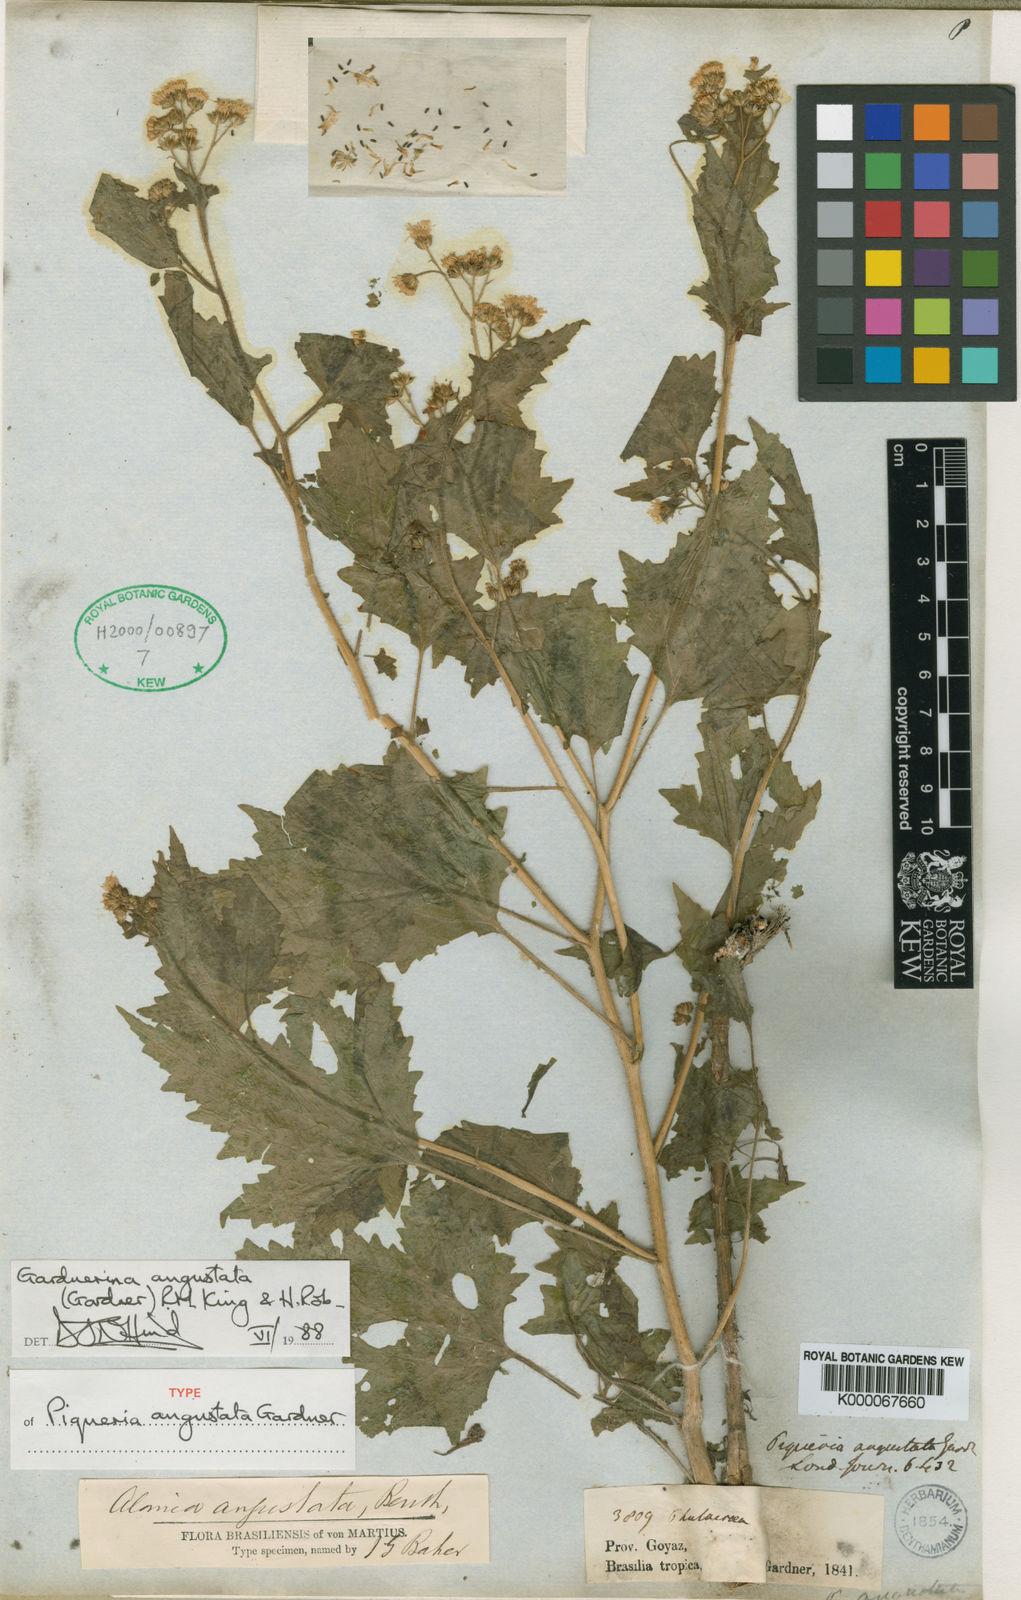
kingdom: Plantae
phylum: Tracheophyta
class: Magnoliopsida
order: Asterales
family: Asteraceae
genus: Gardnerina
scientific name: Gardnerina angustata
